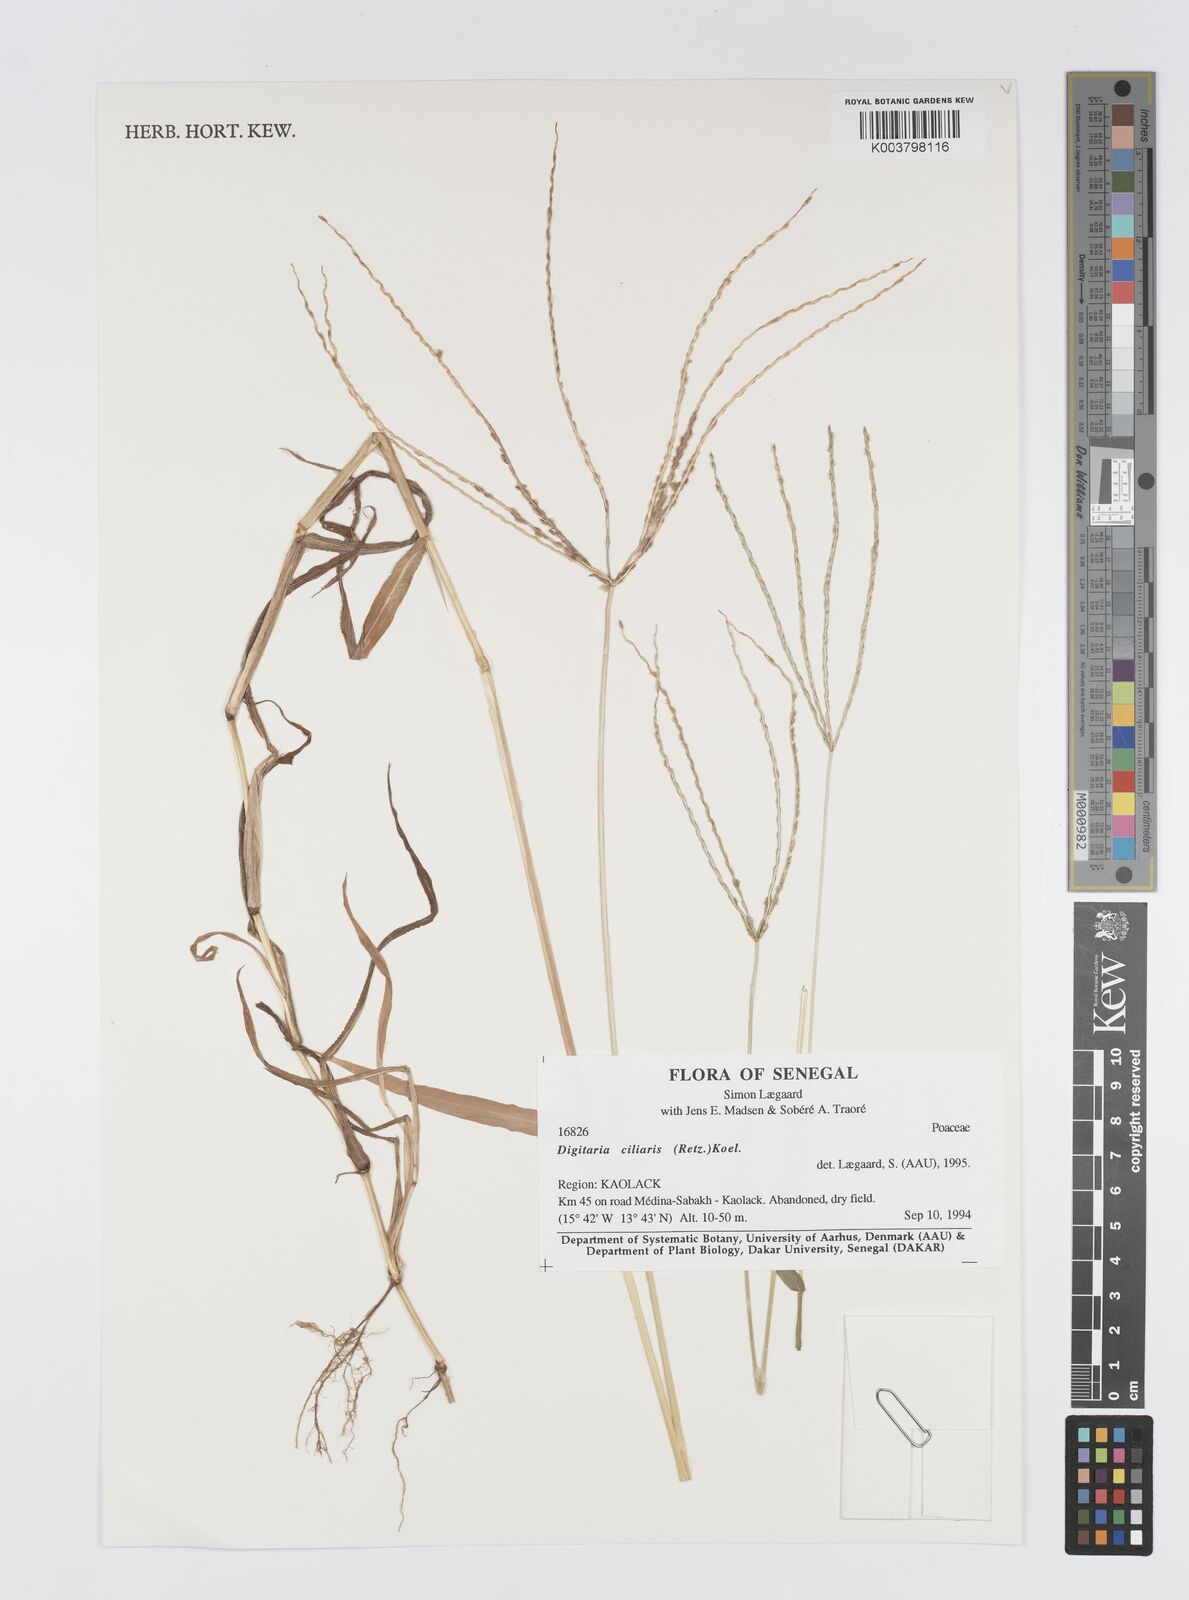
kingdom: Plantae
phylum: Tracheophyta
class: Liliopsida
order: Poales
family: Poaceae
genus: Digitaria
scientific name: Digitaria
